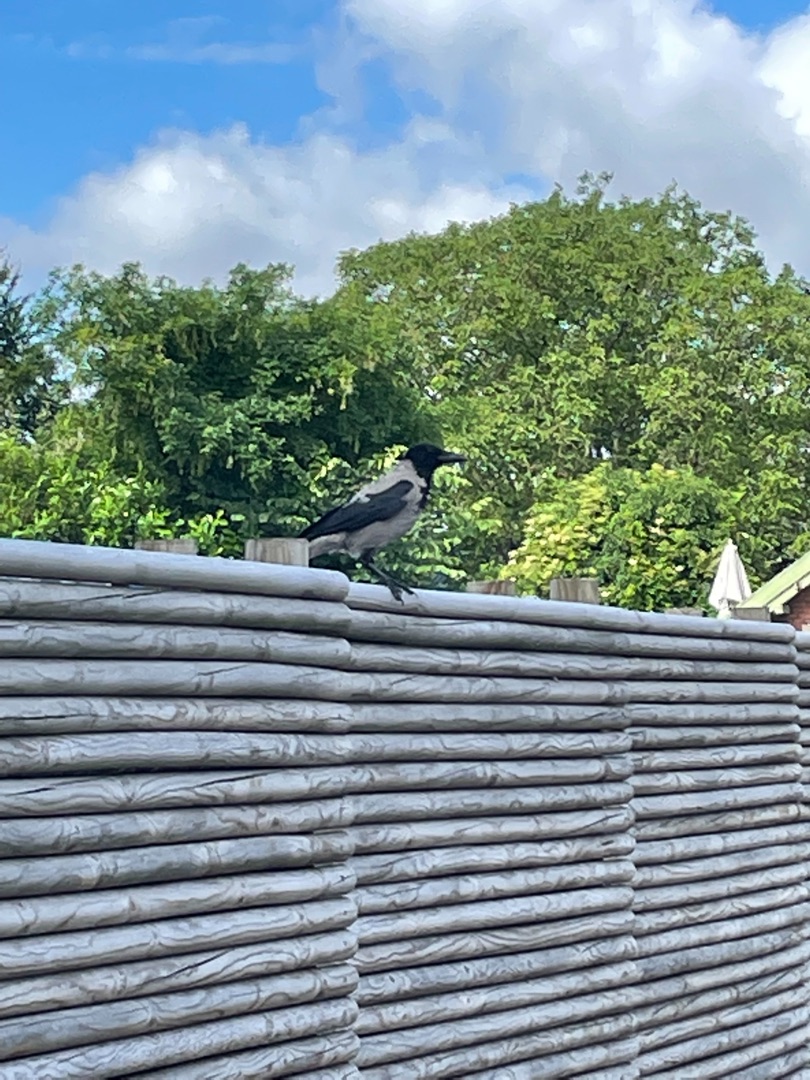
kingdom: Animalia
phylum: Chordata
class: Aves
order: Passeriformes
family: Corvidae
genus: Corvus
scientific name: Corvus cornix
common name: Gråkrage
